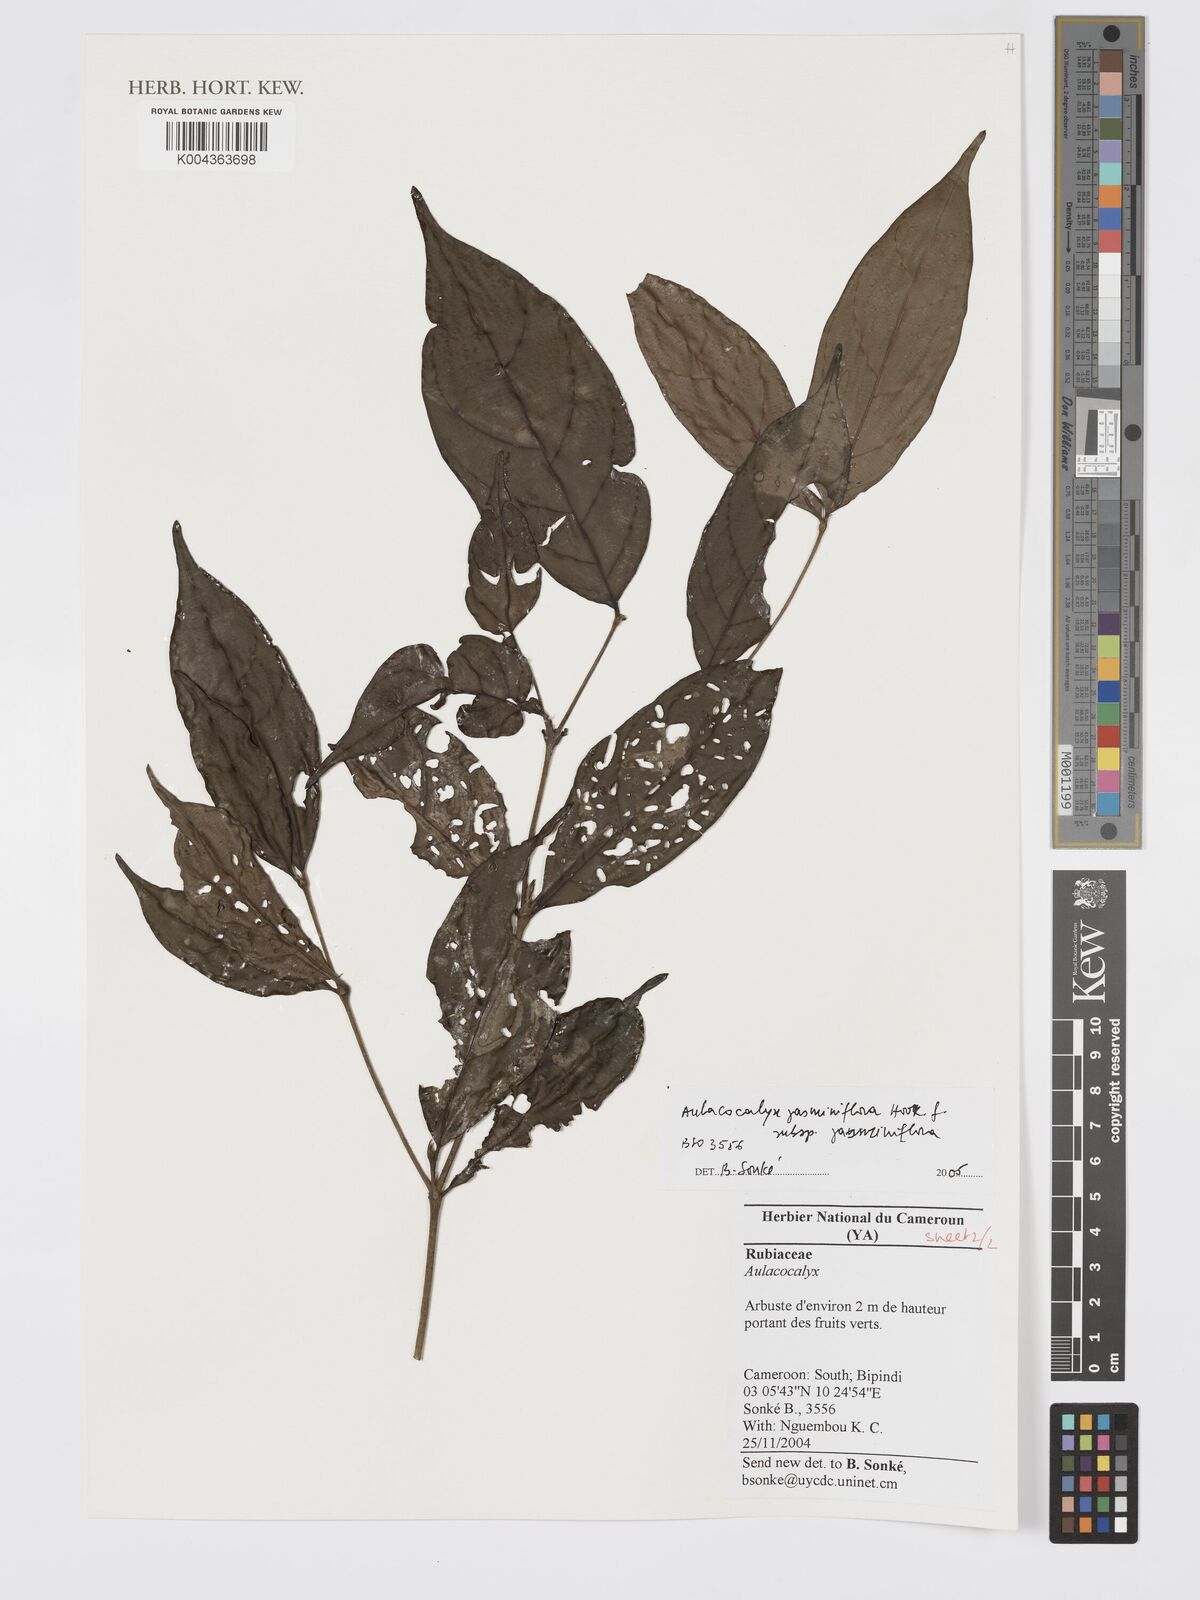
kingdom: Plantae
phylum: Tracheophyta
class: Magnoliopsida
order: Gentianales
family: Rubiaceae
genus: Aulacocalyx
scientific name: Aulacocalyx jasminiflora
